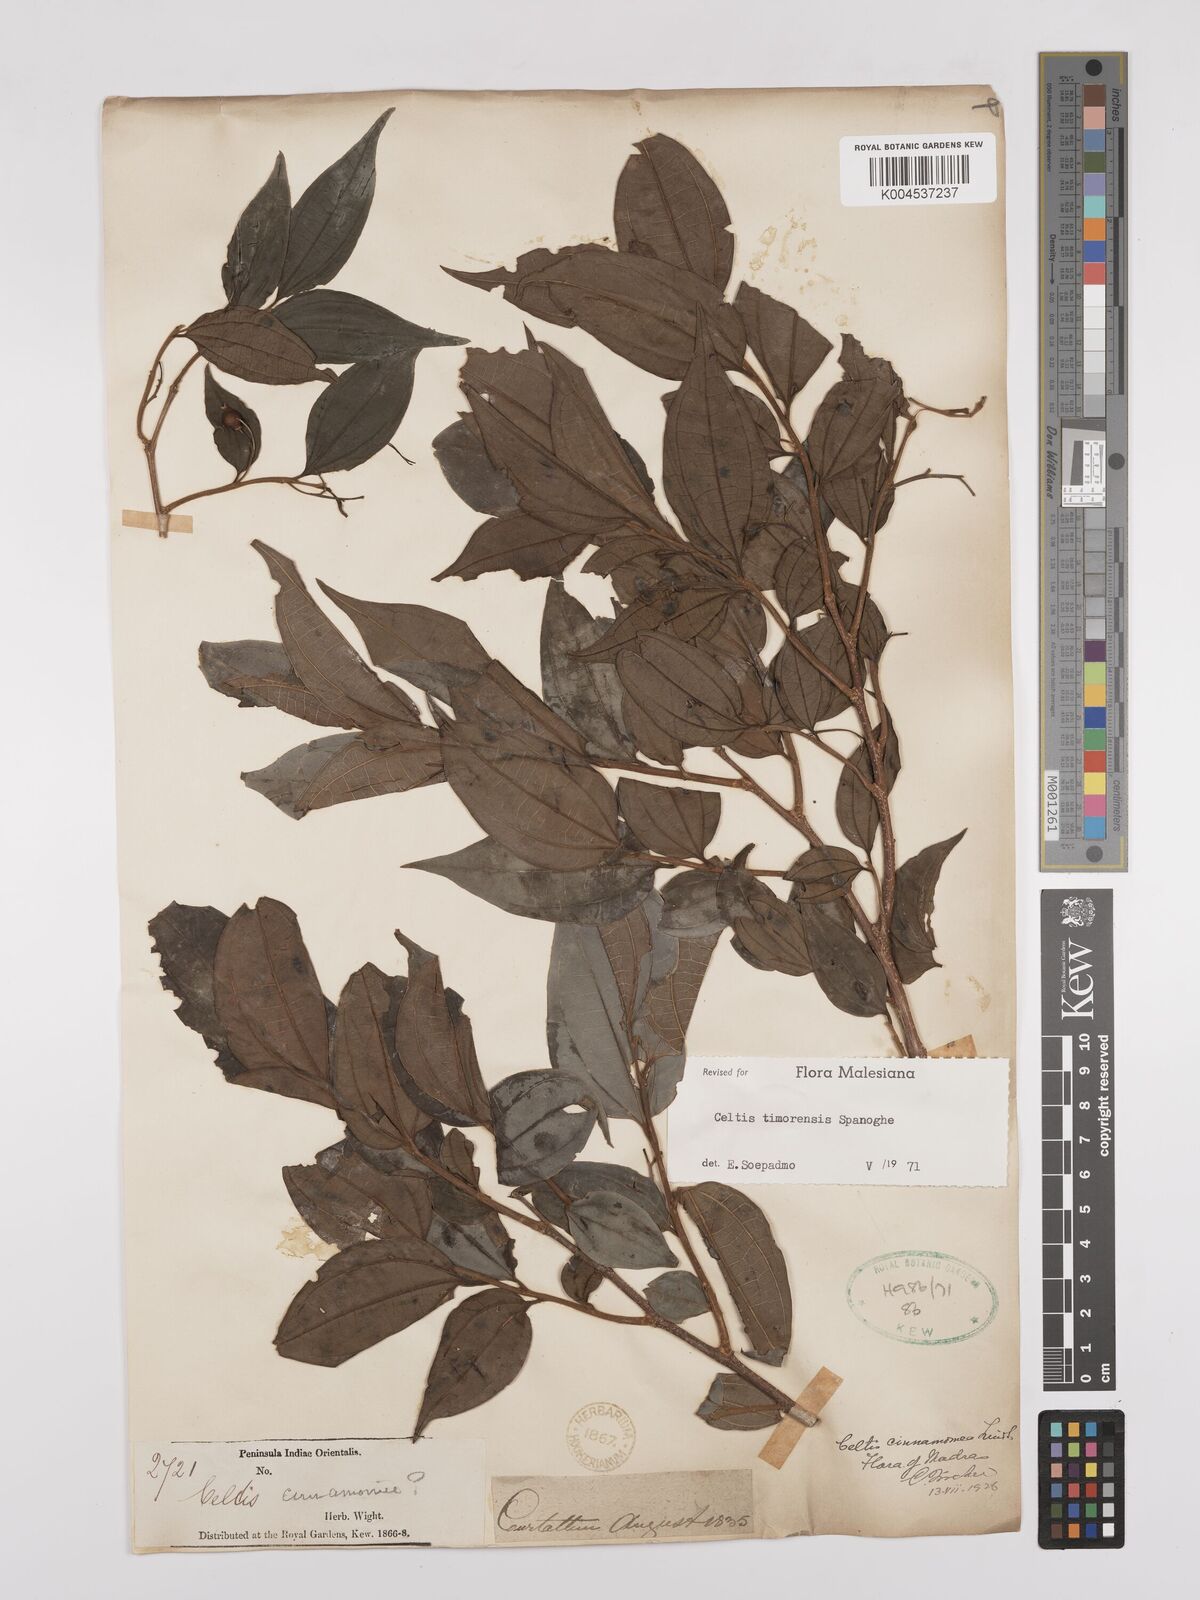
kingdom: Plantae
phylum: Tracheophyta
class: Magnoliopsida
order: Rosales
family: Cannabaceae
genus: Celtis
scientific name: Celtis timorensis
